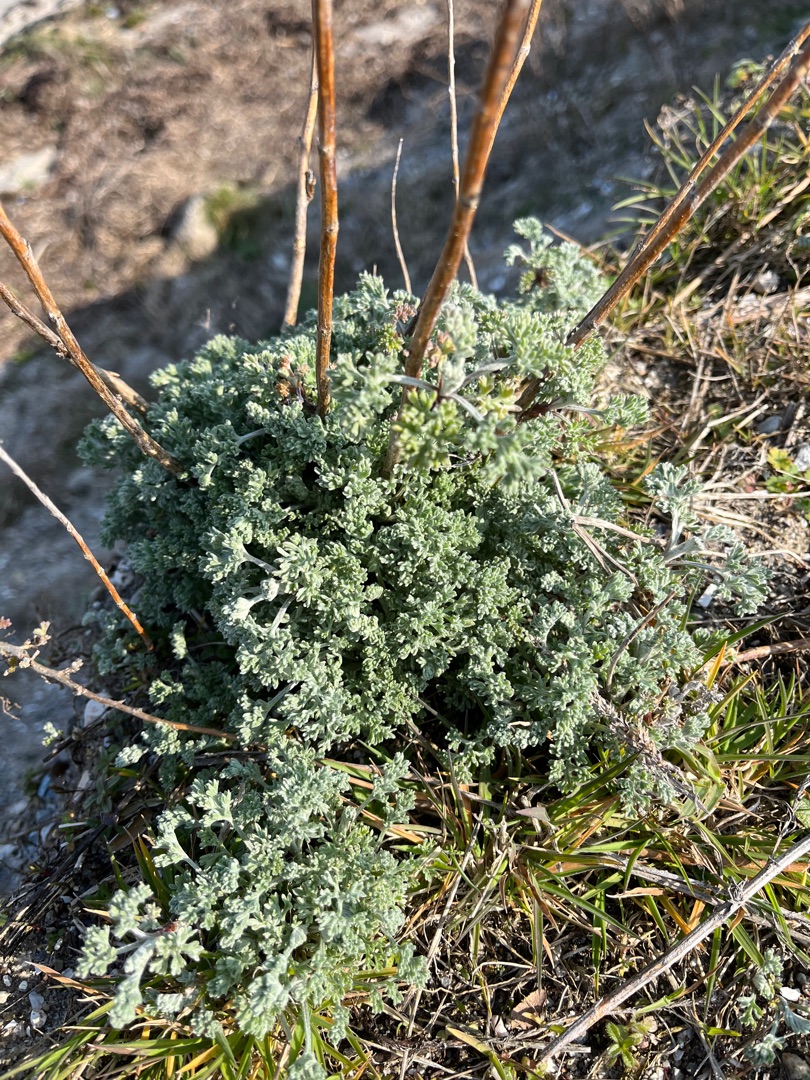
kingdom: Plantae
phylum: Tracheophyta
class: Magnoliopsida
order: Asterales
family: Asteraceae
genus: Artemisia
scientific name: Artemisia maritima
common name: Strandmalurt
